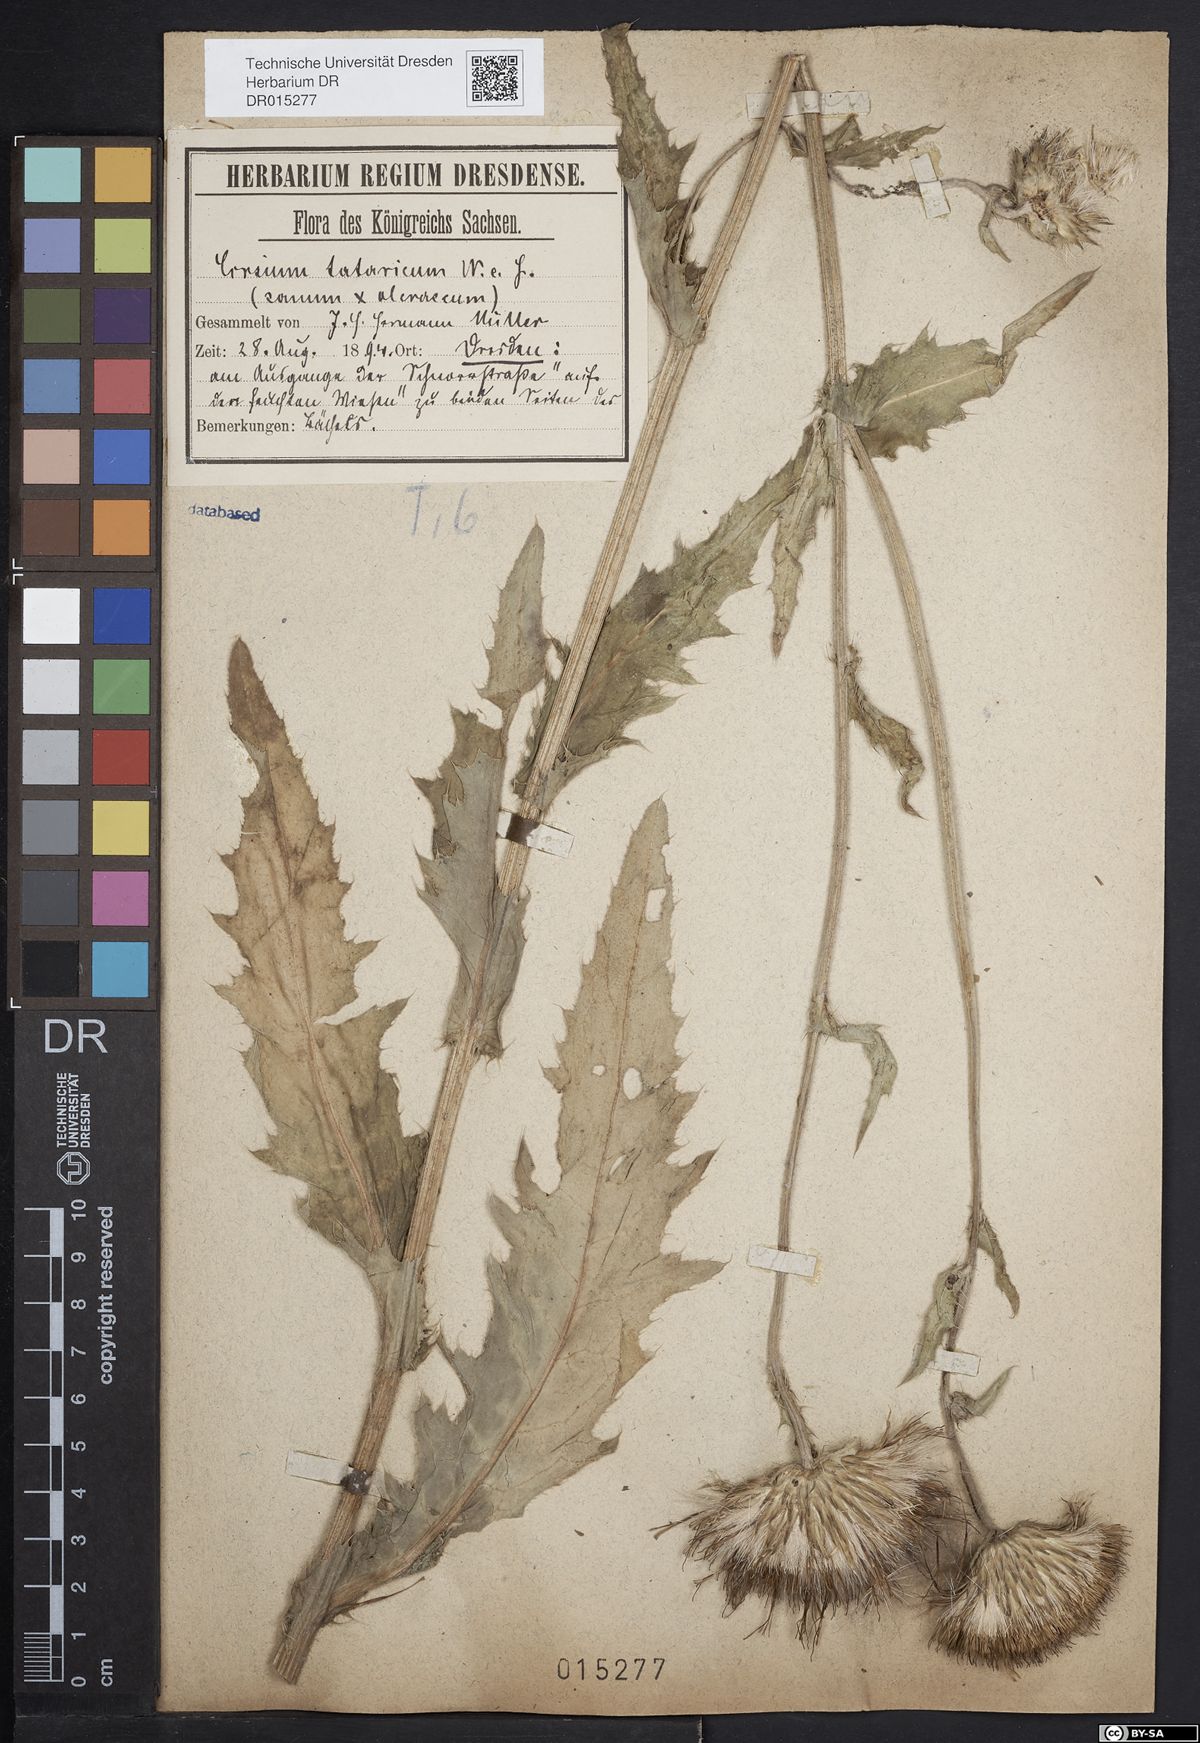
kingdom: Plantae
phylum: Tracheophyta
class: Magnoliopsida
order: Asterales
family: Asteraceae
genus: Cirsium
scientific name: Cirsium tataricum
